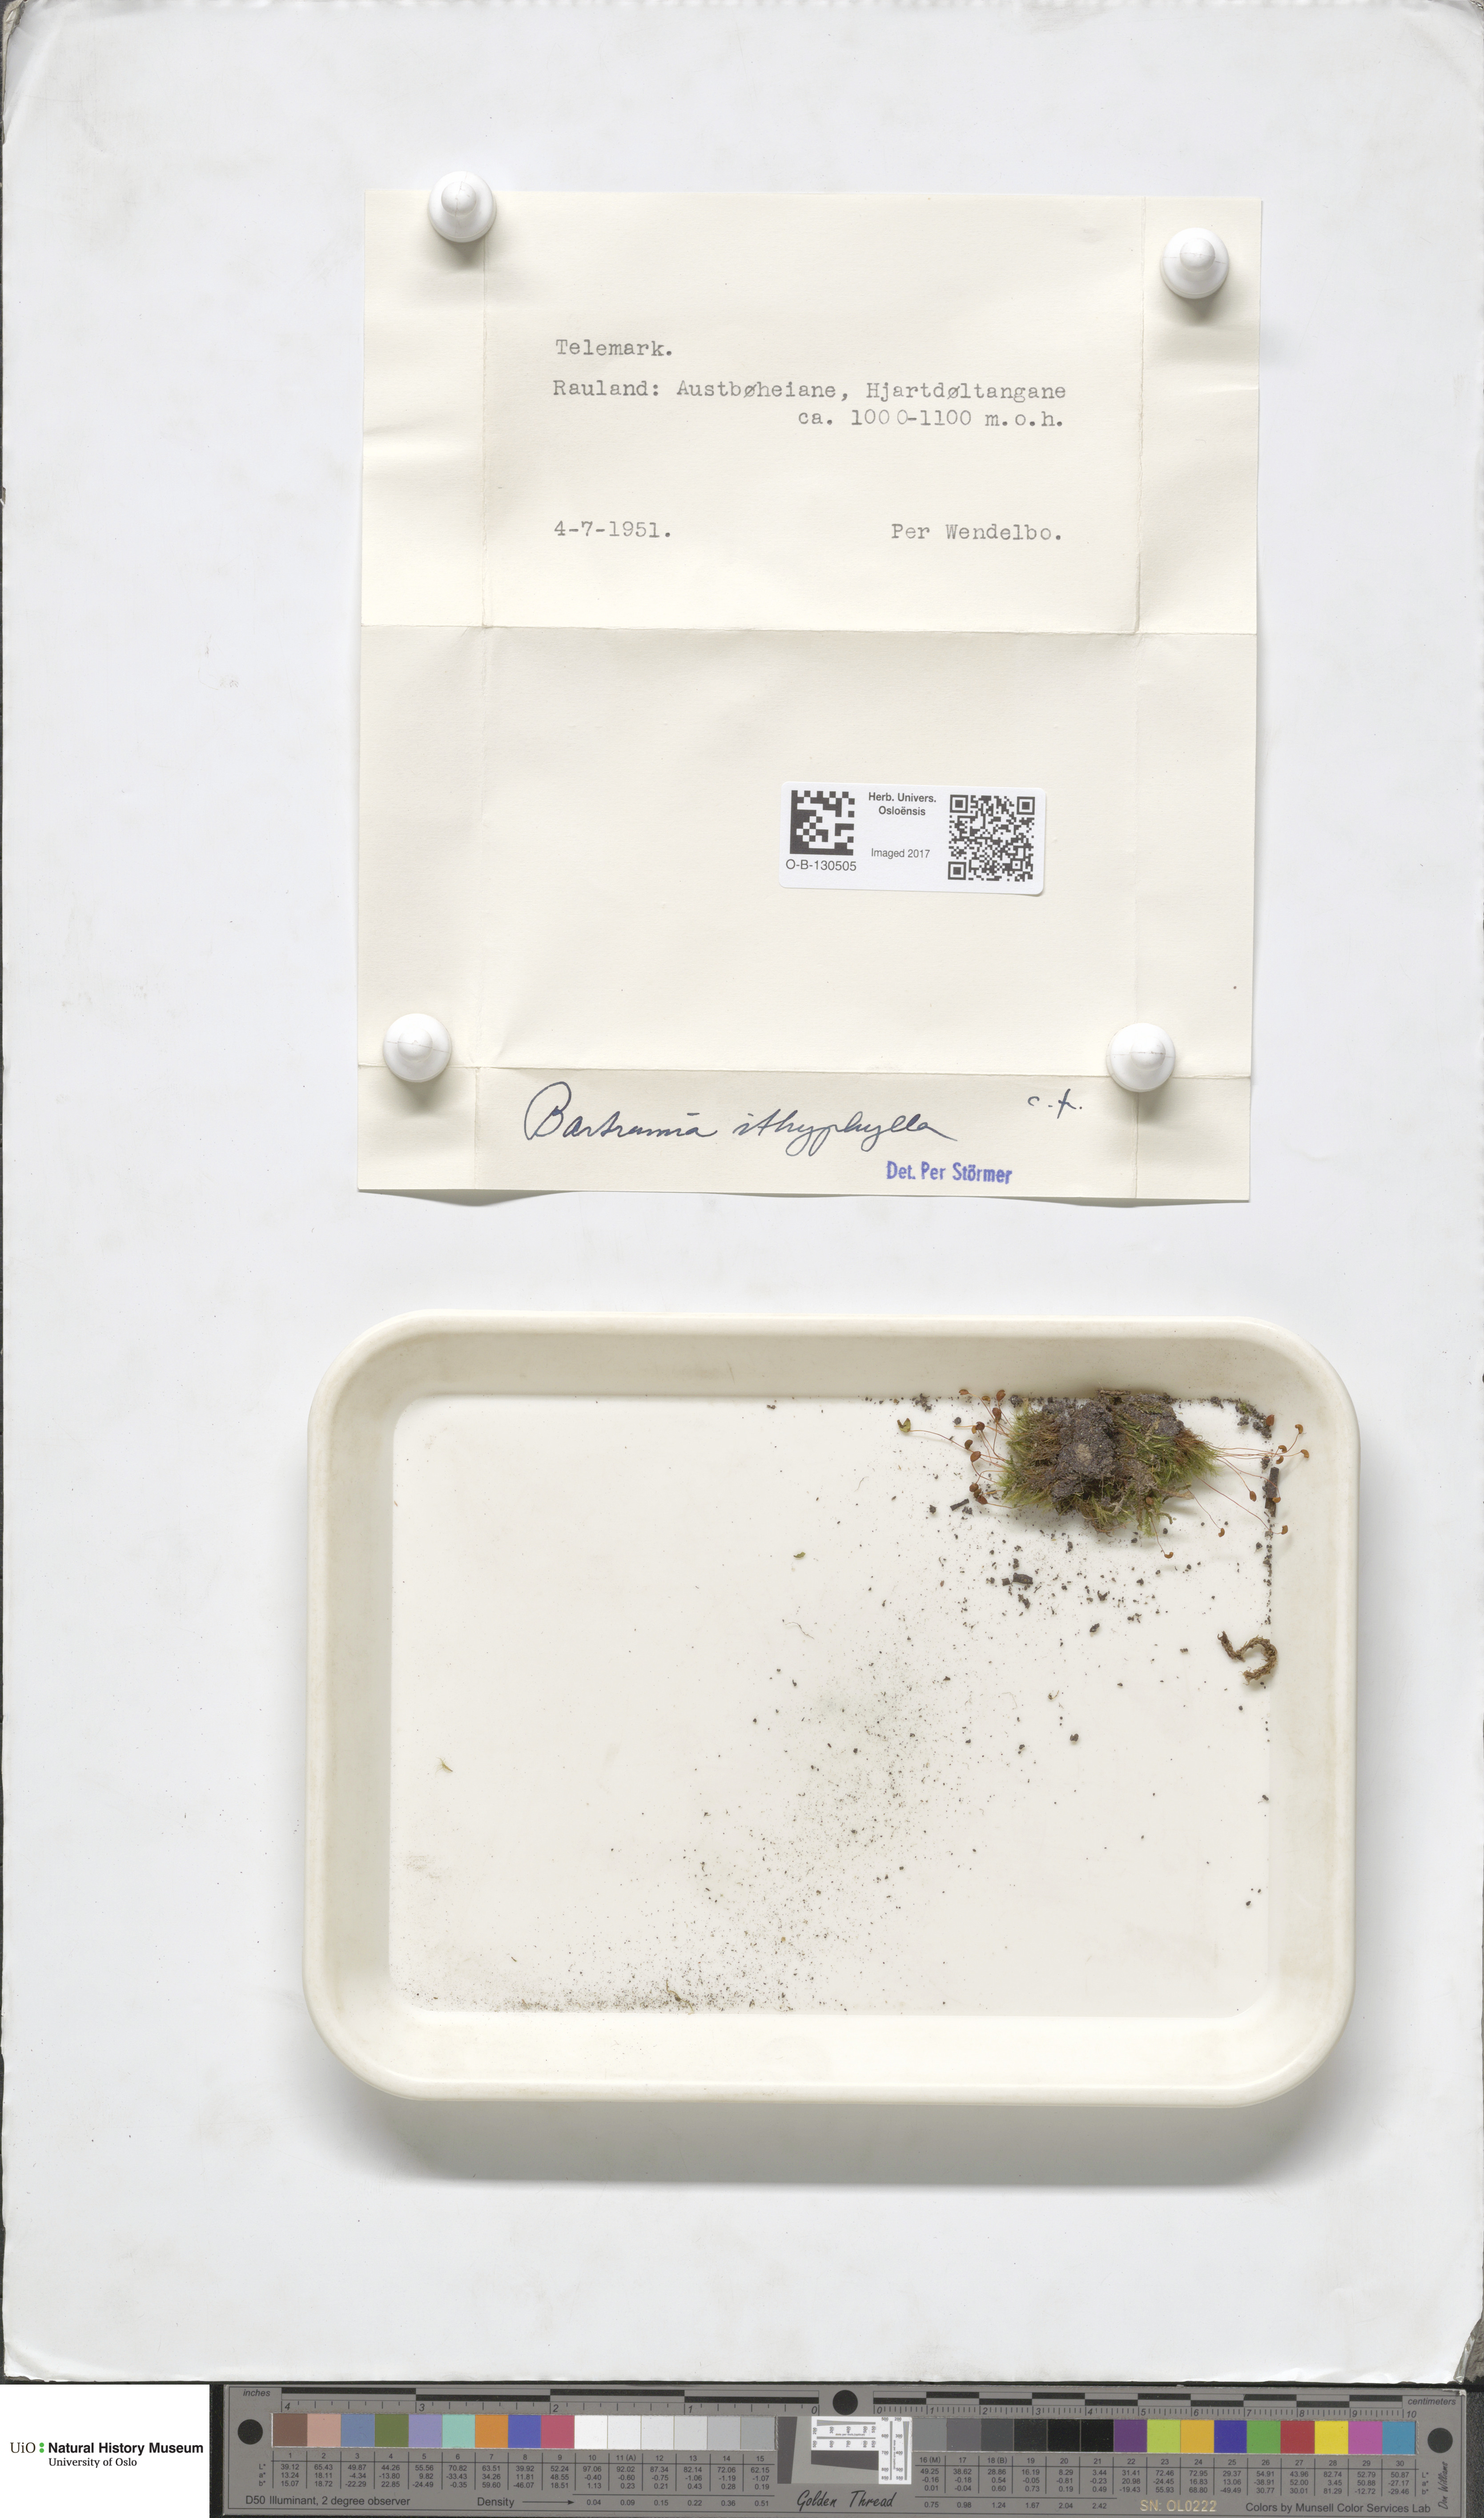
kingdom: Plantae
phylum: Bryophyta
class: Bryopsida
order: Bartramiales
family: Bartramiaceae
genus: Bartramia
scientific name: Bartramia ithyphylla
